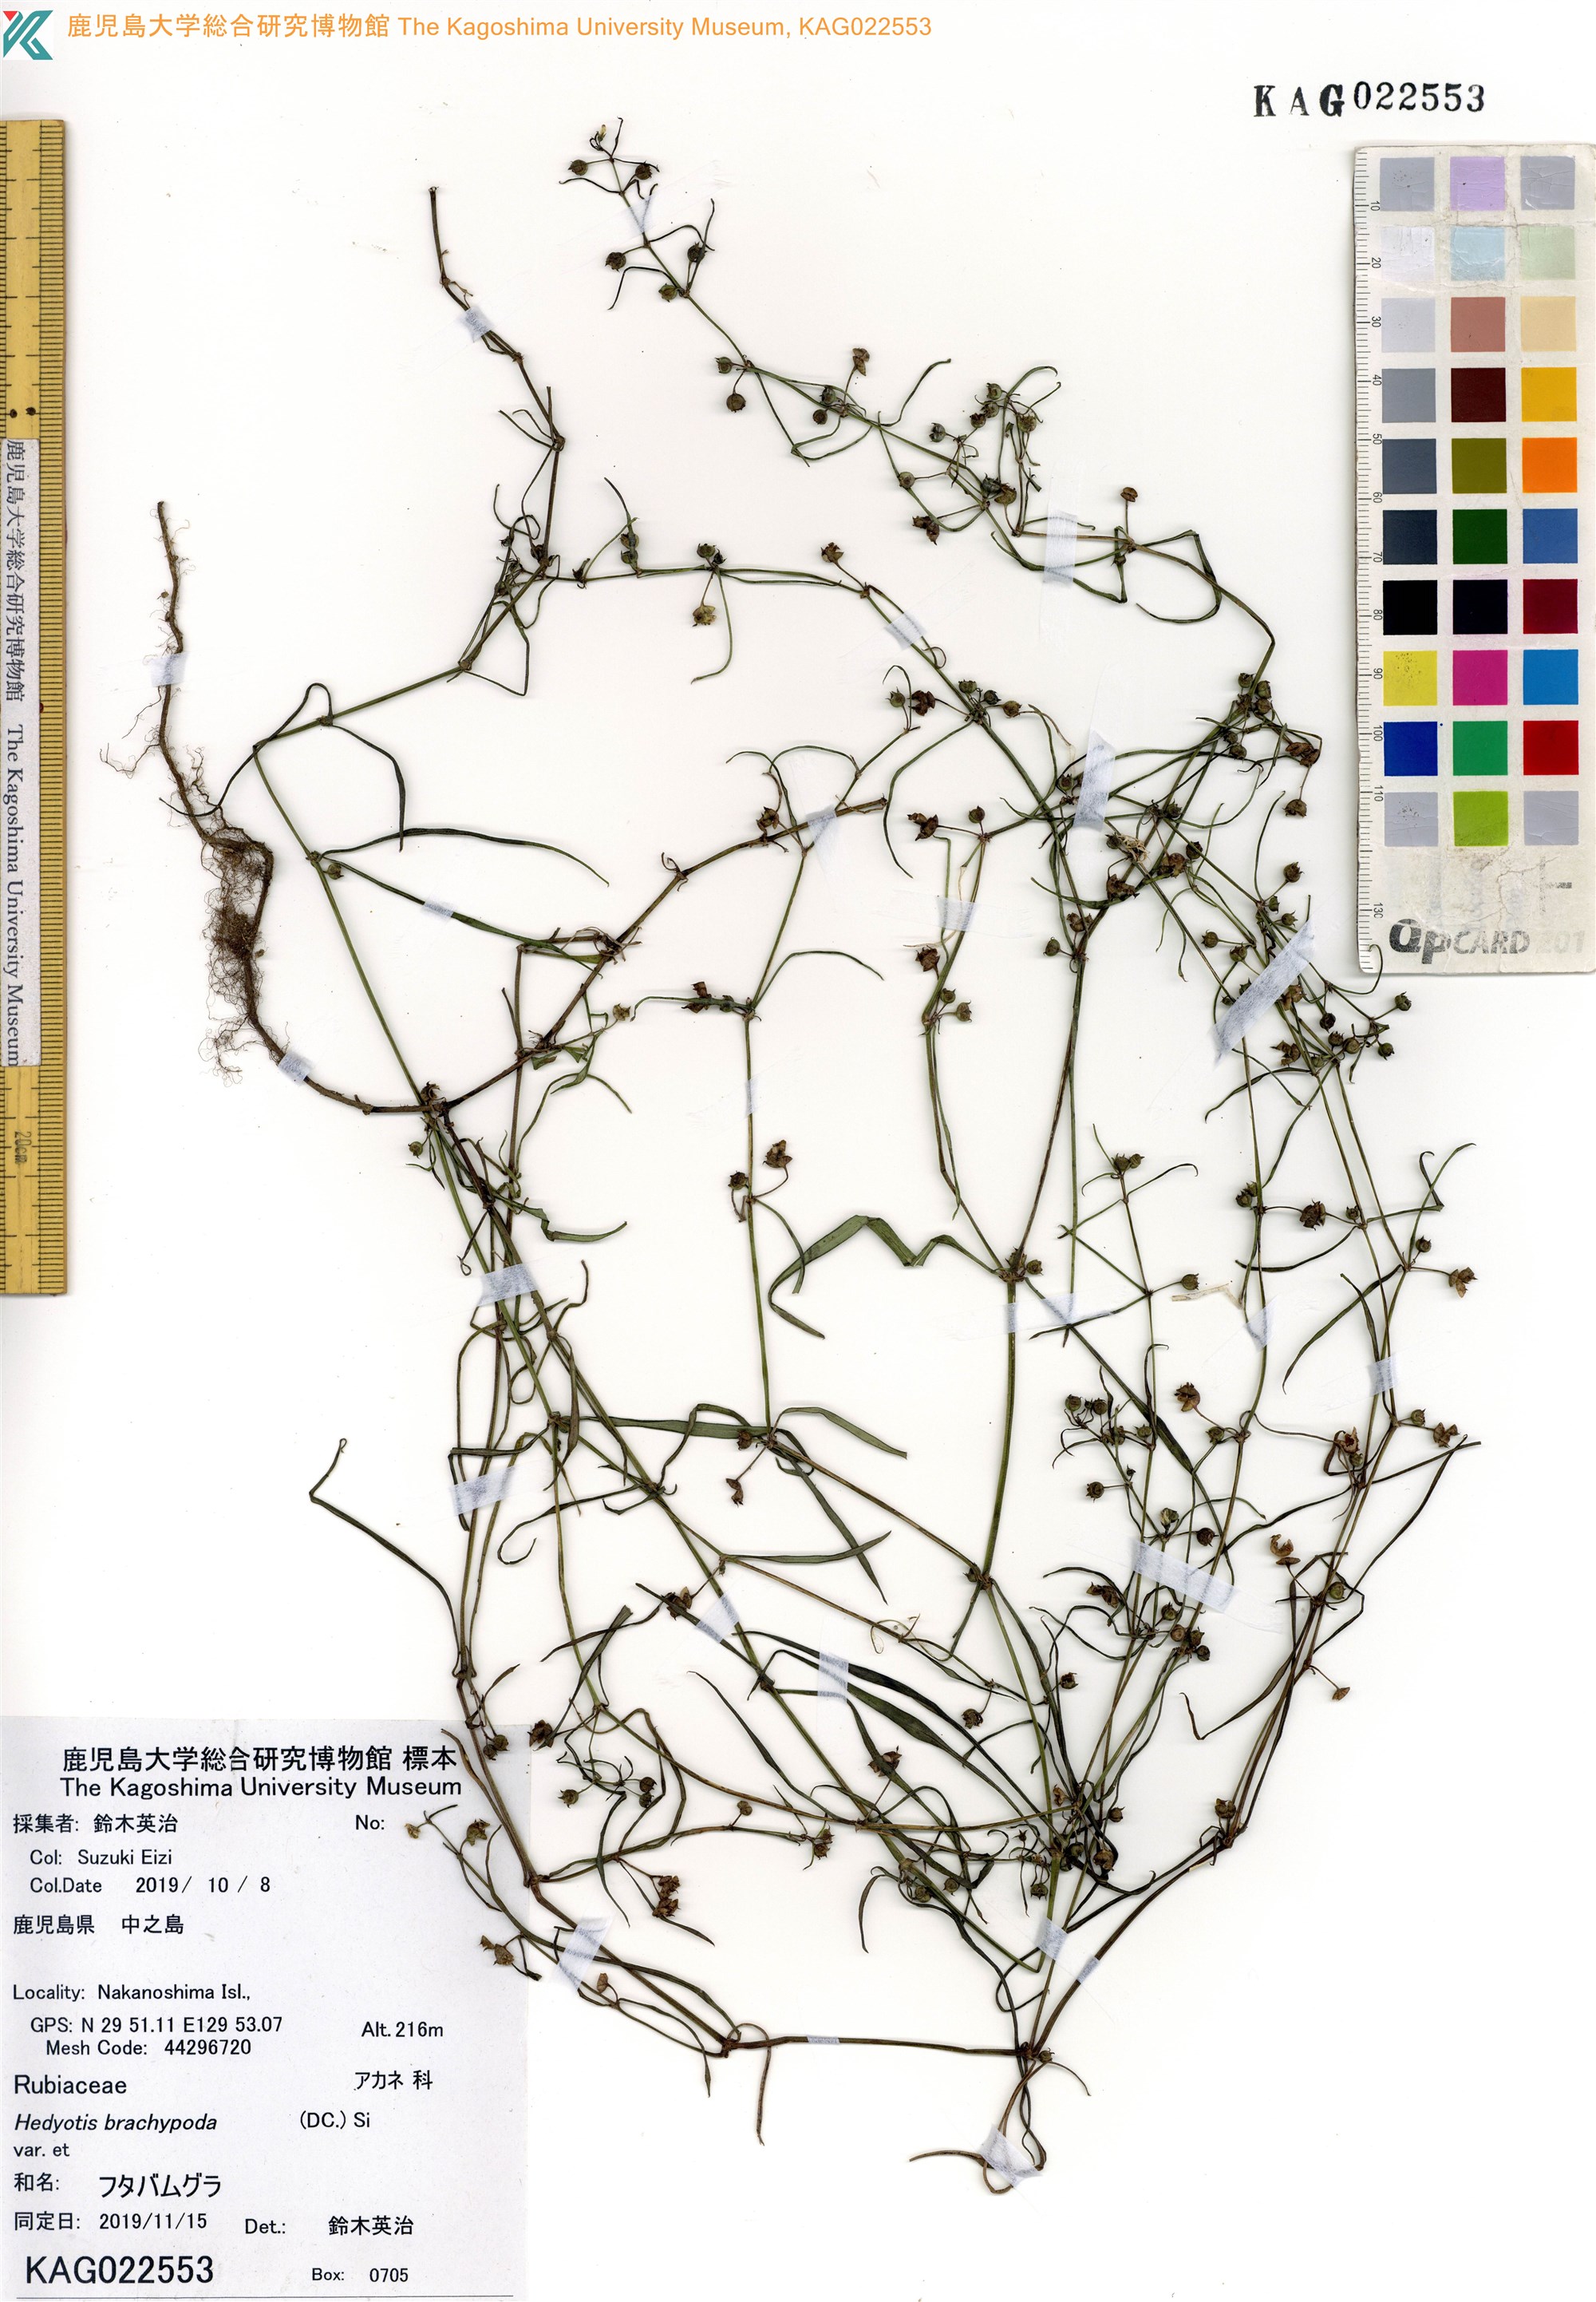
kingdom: Plantae
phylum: Tracheophyta
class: Magnoliopsida
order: Gentianales
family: Rubiaceae
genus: Scleromitrion
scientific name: Scleromitrion brachypodum
